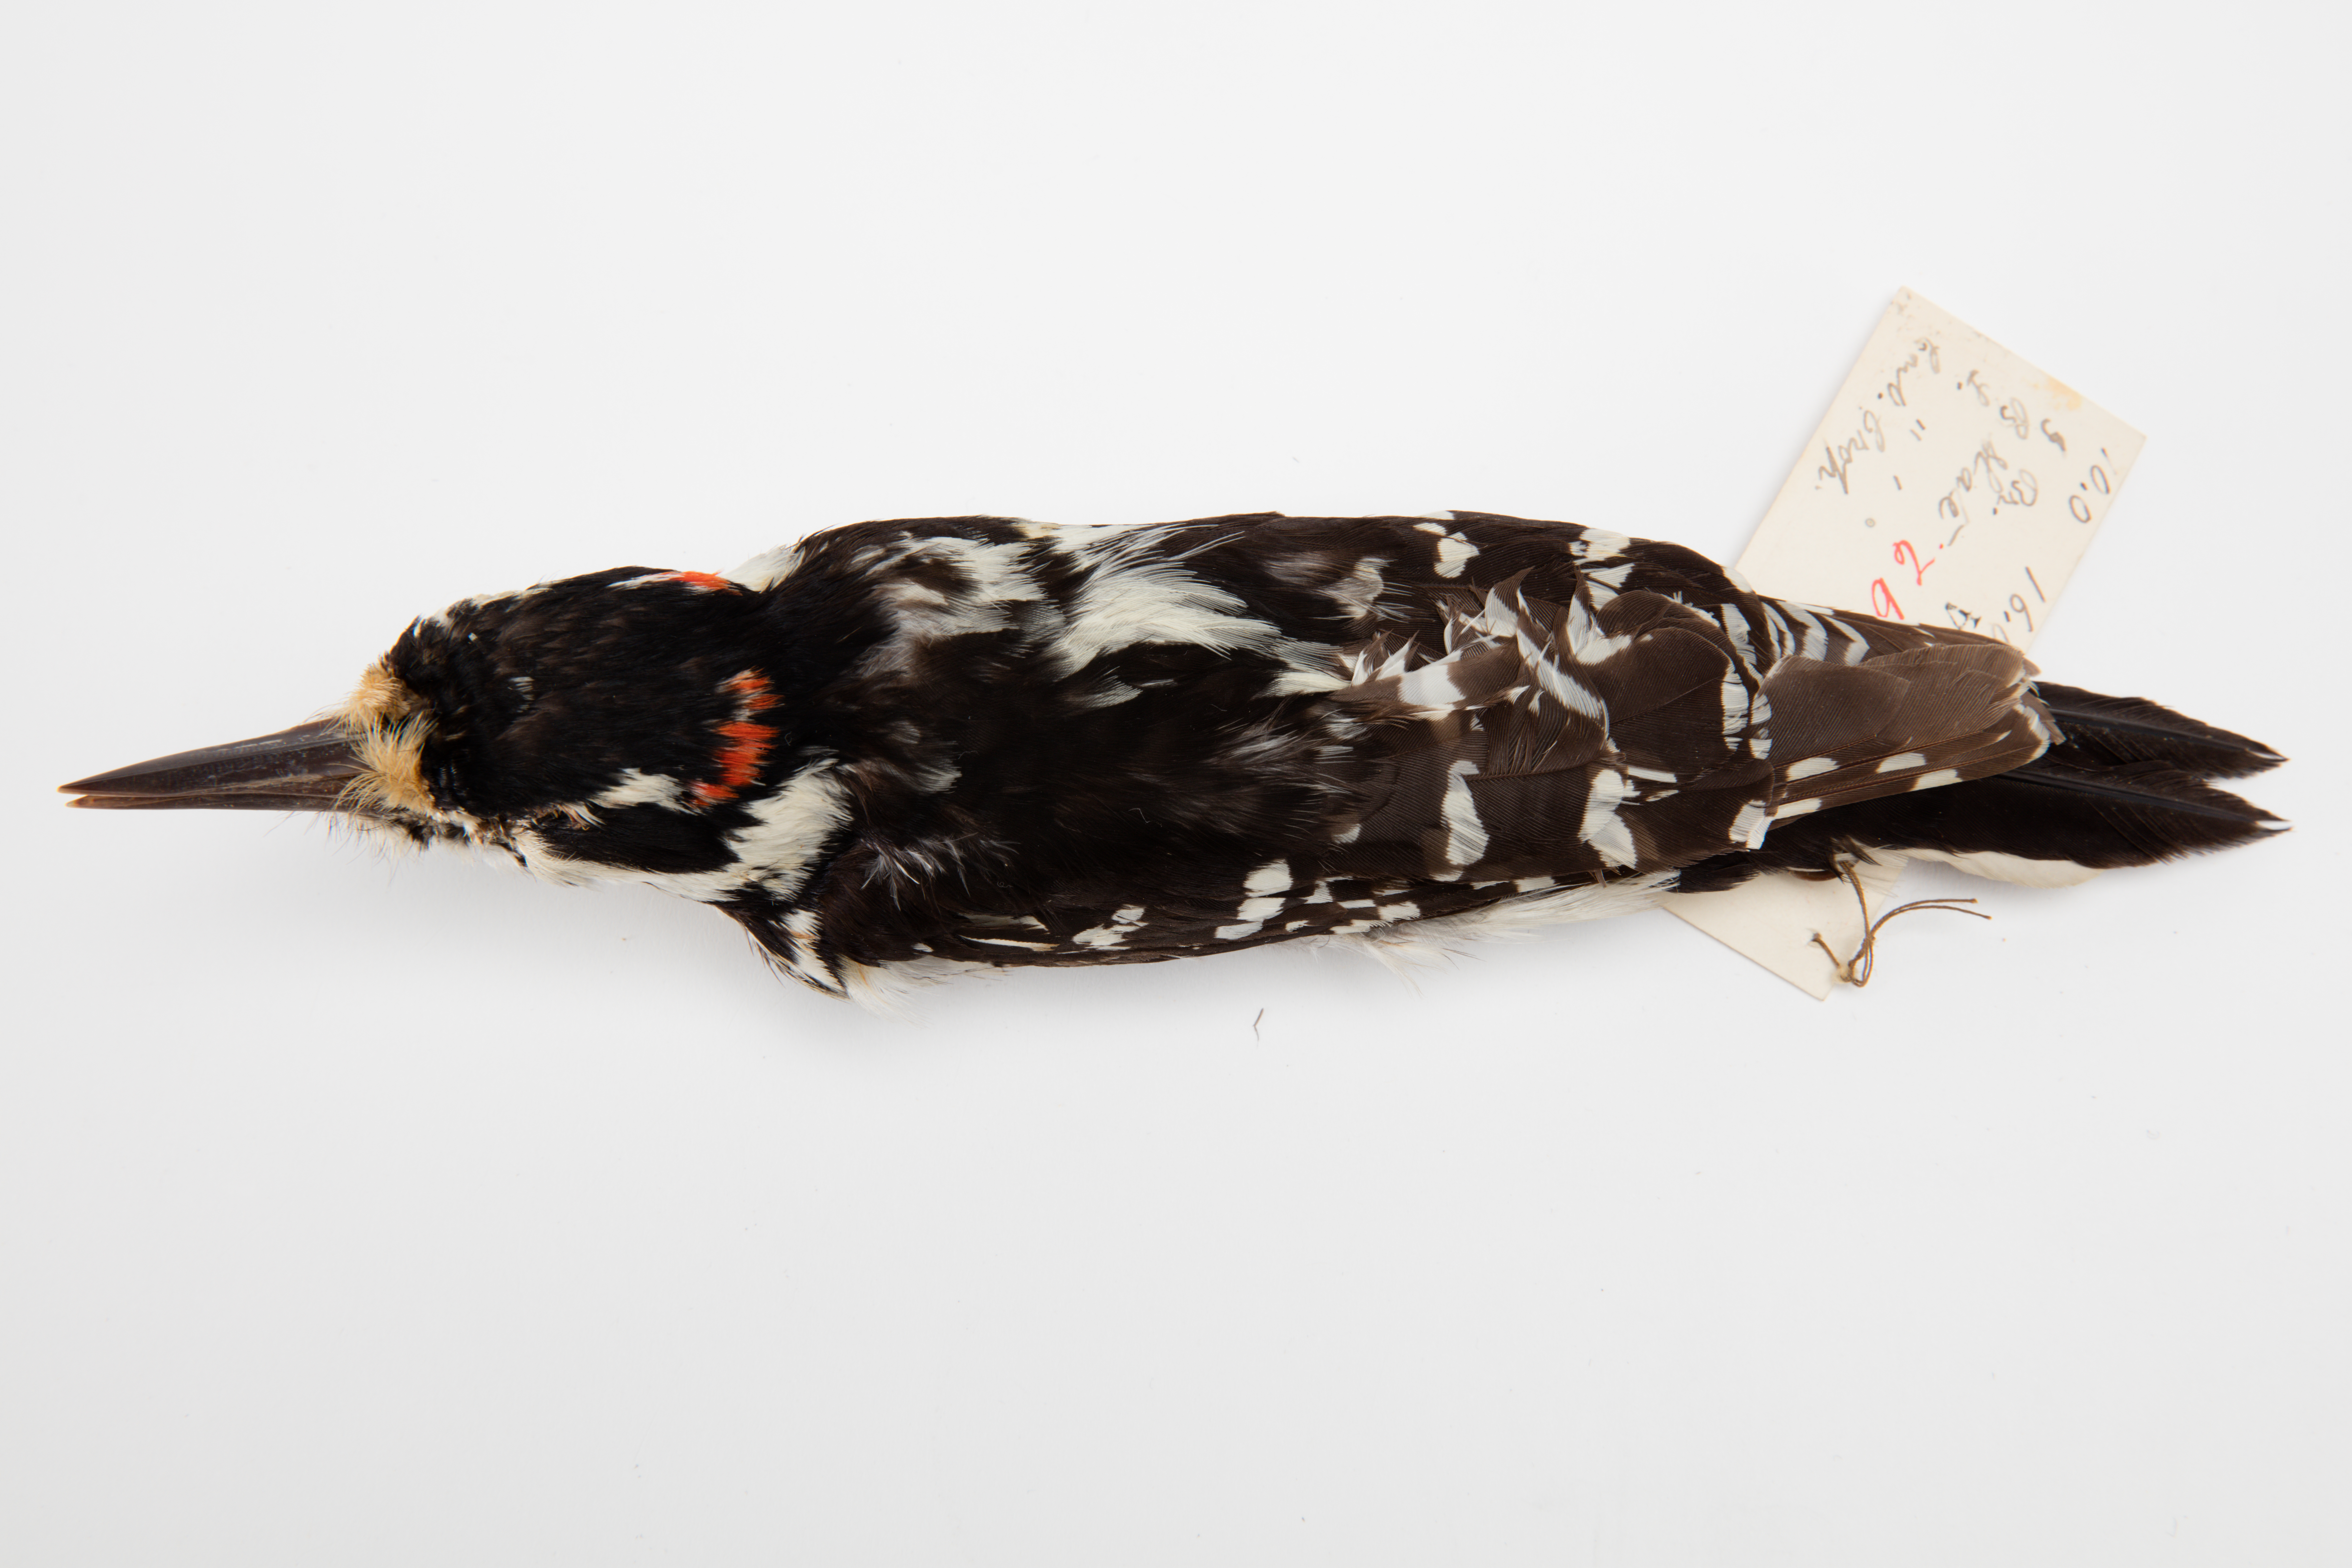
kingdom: Animalia
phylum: Chordata
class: Aves
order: Piciformes
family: Picidae
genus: Leuconotopicus
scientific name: Leuconotopicus villosus
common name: Hairy woodpecker
